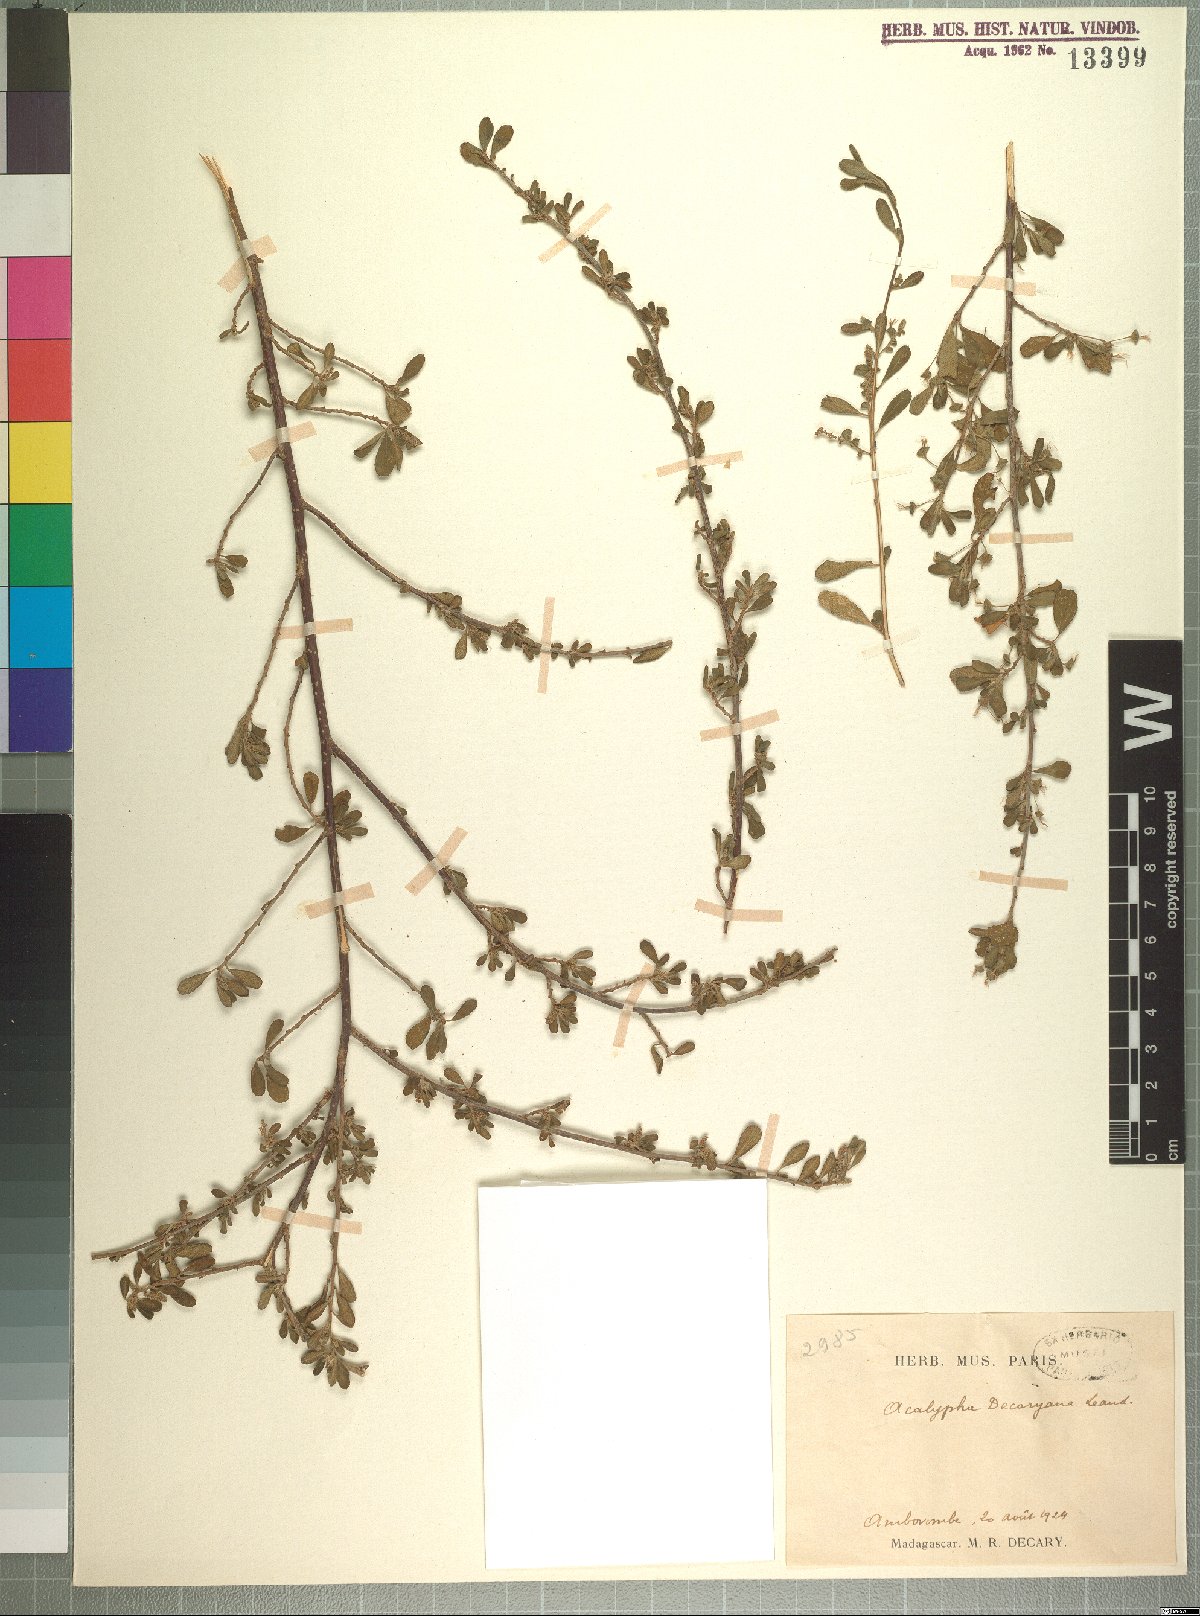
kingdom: Plantae
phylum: Tracheophyta
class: Magnoliopsida
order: Malpighiales
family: Euphorbiaceae
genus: Acalypha
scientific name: Acalypha decaryana
